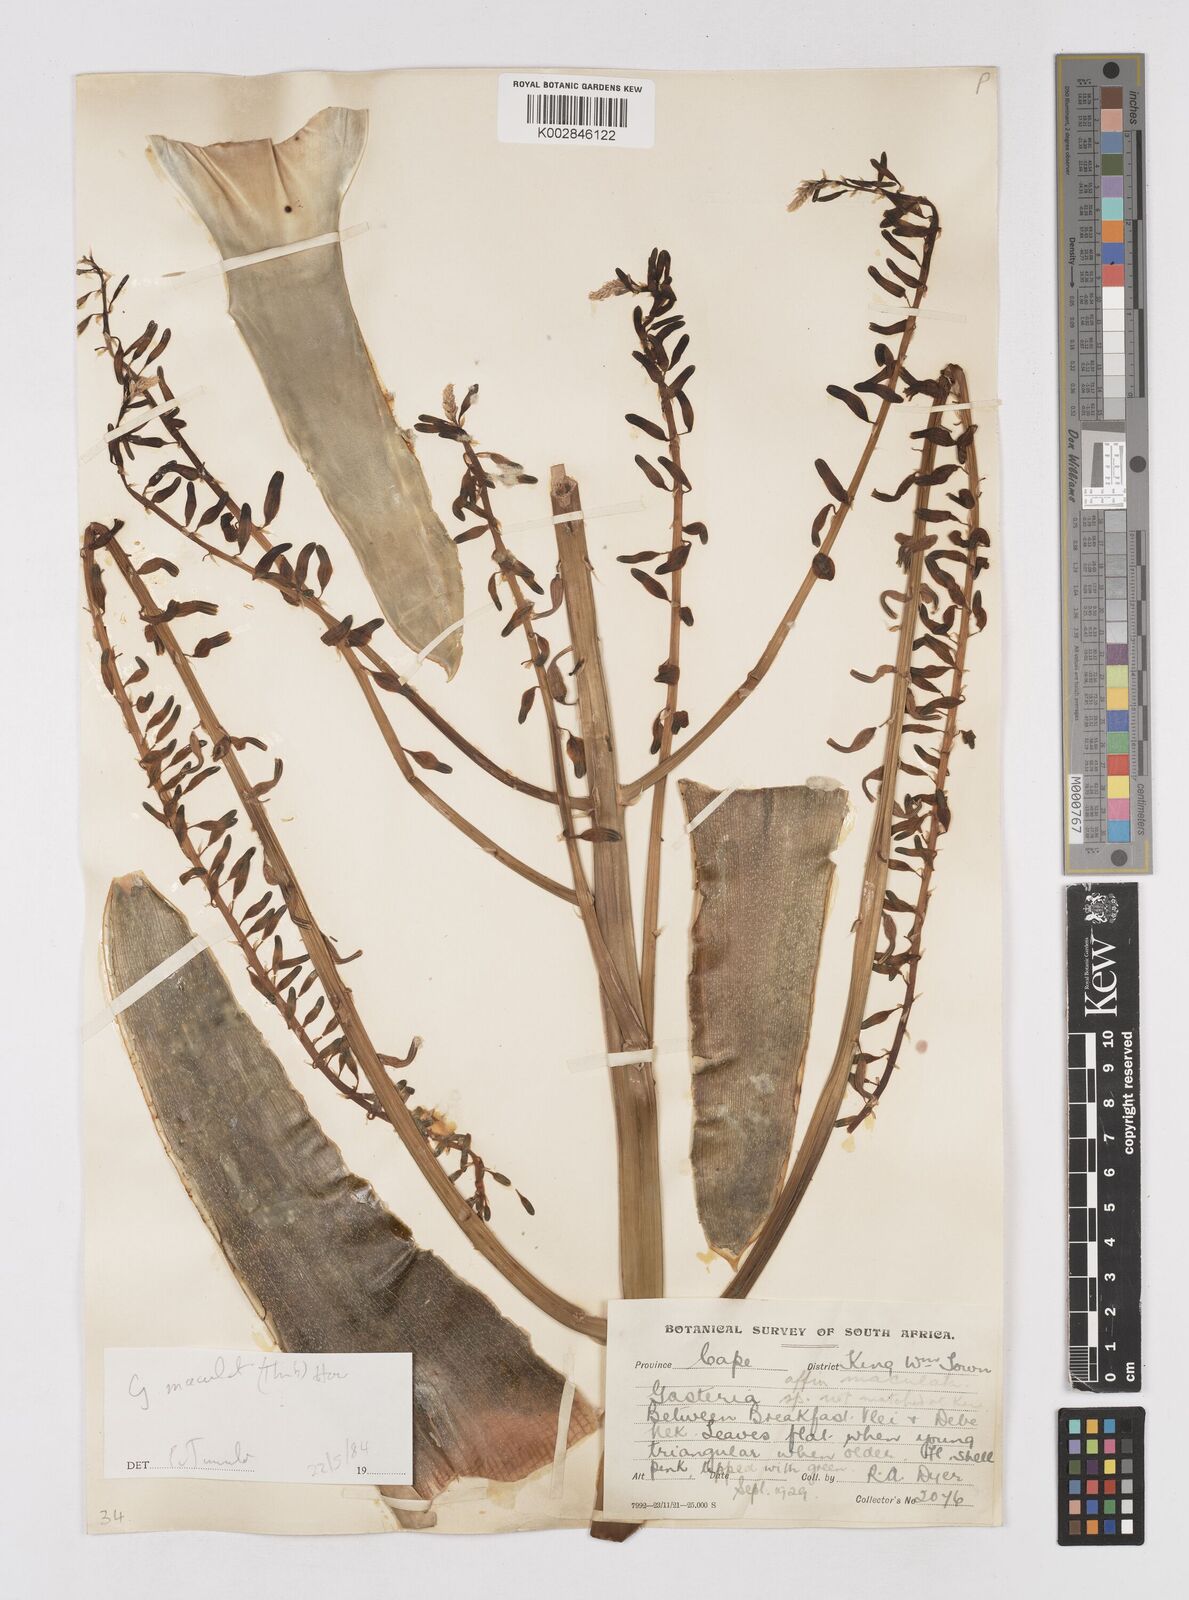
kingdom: Plantae
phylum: Tracheophyta
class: Liliopsida
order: Asparagales
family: Asphodelaceae
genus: Gasteria
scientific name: Gasteria
